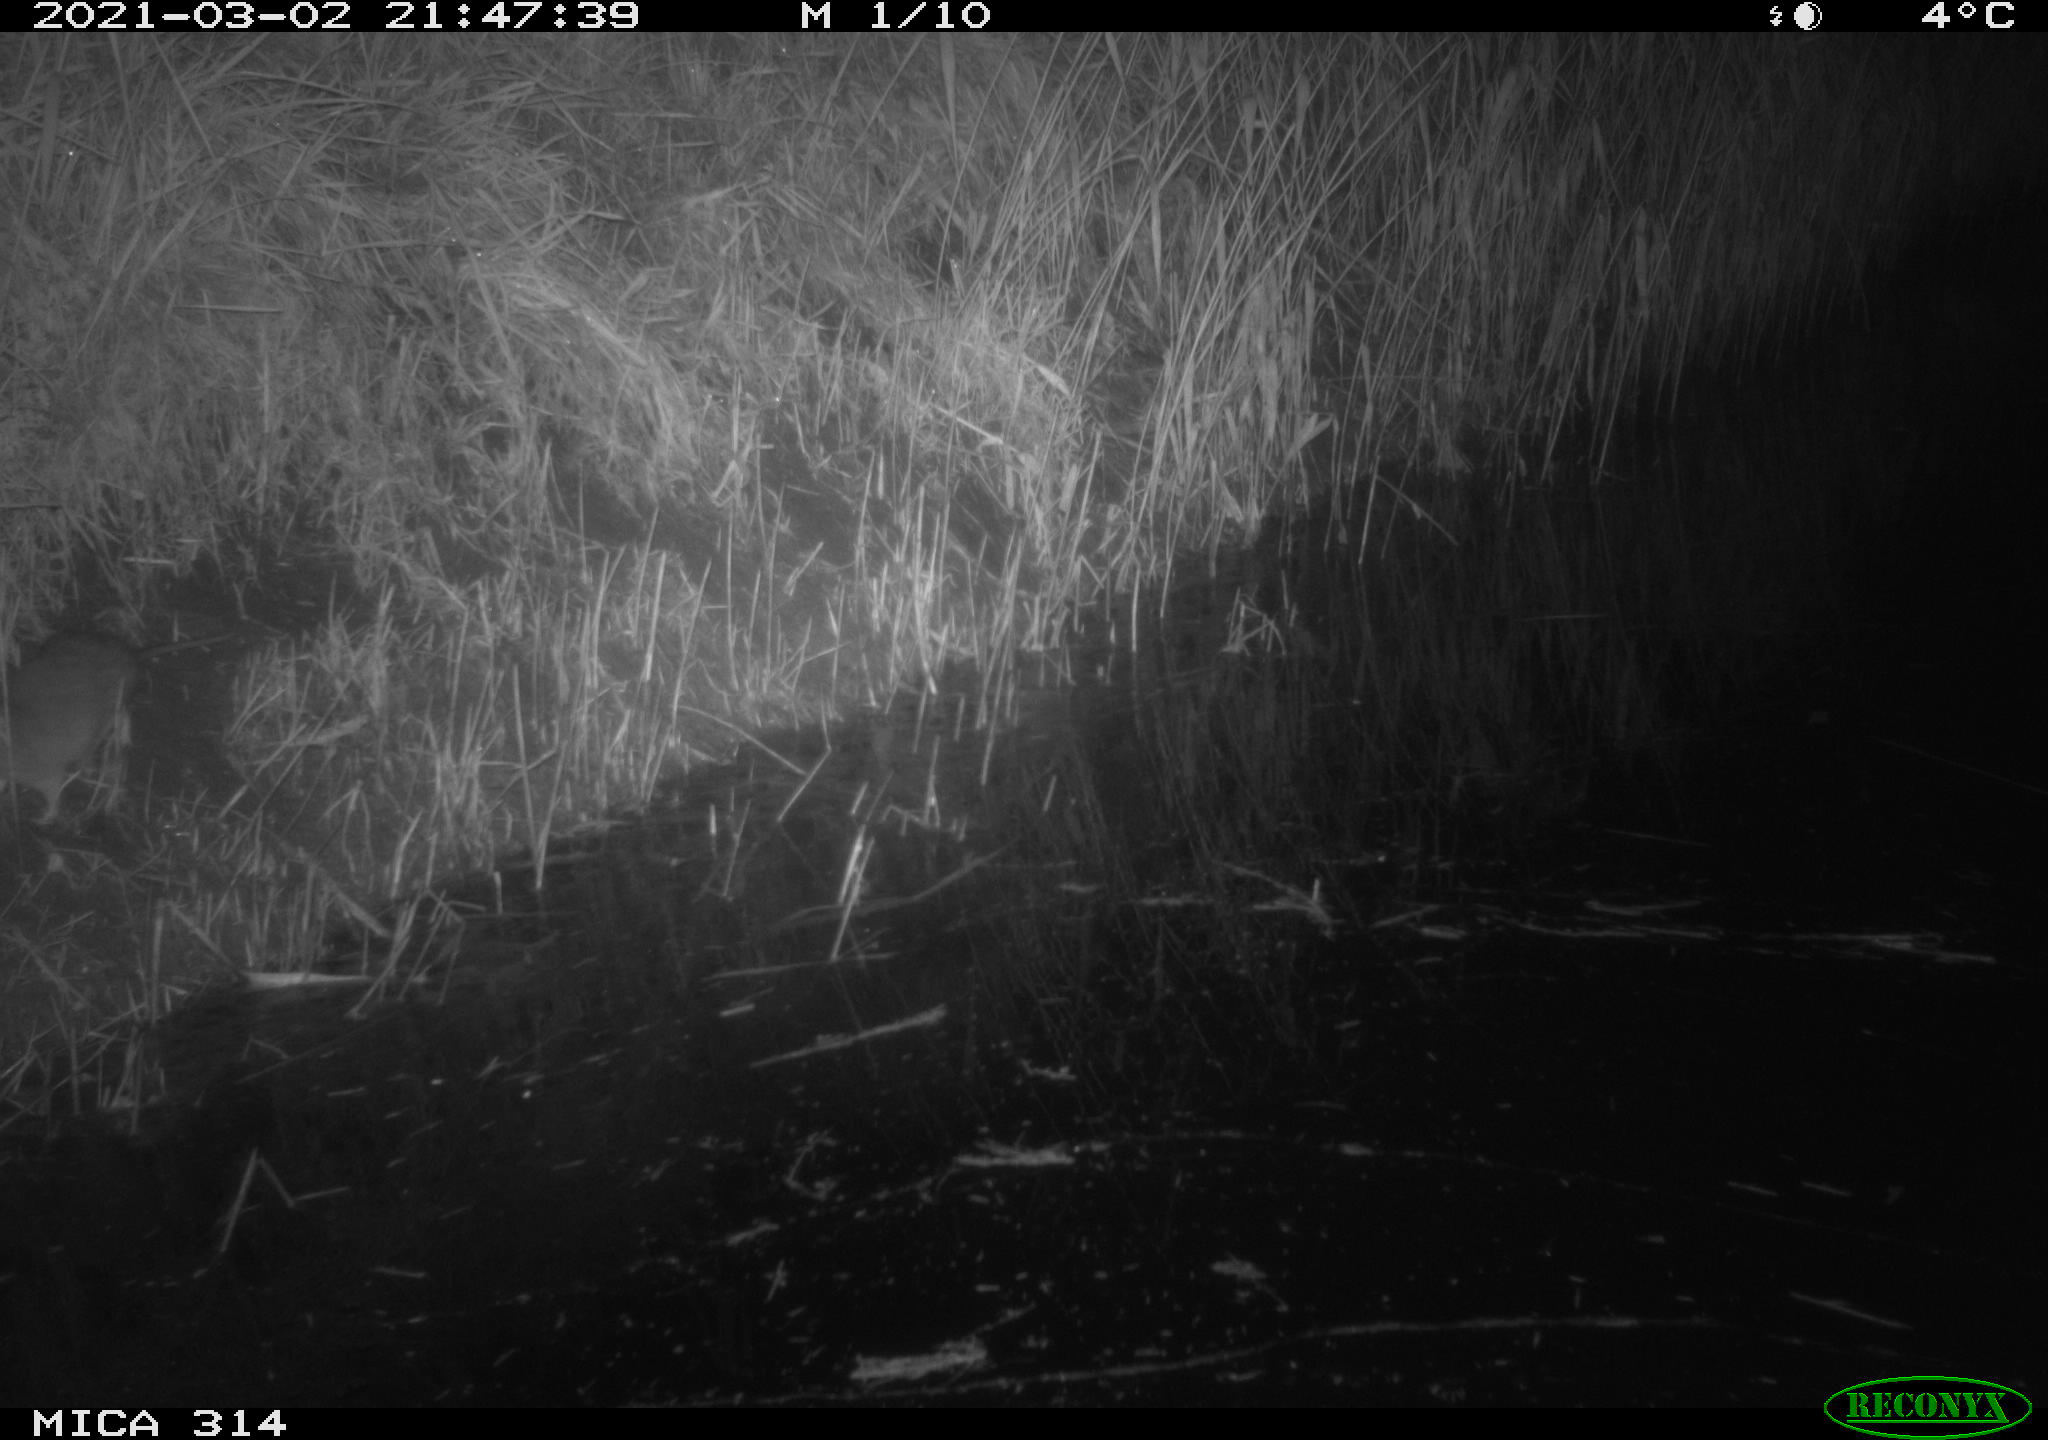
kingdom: Animalia
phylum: Chordata
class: Mammalia
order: Rodentia
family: Muridae
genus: Rattus
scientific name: Rattus norvegicus
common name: Brown rat
